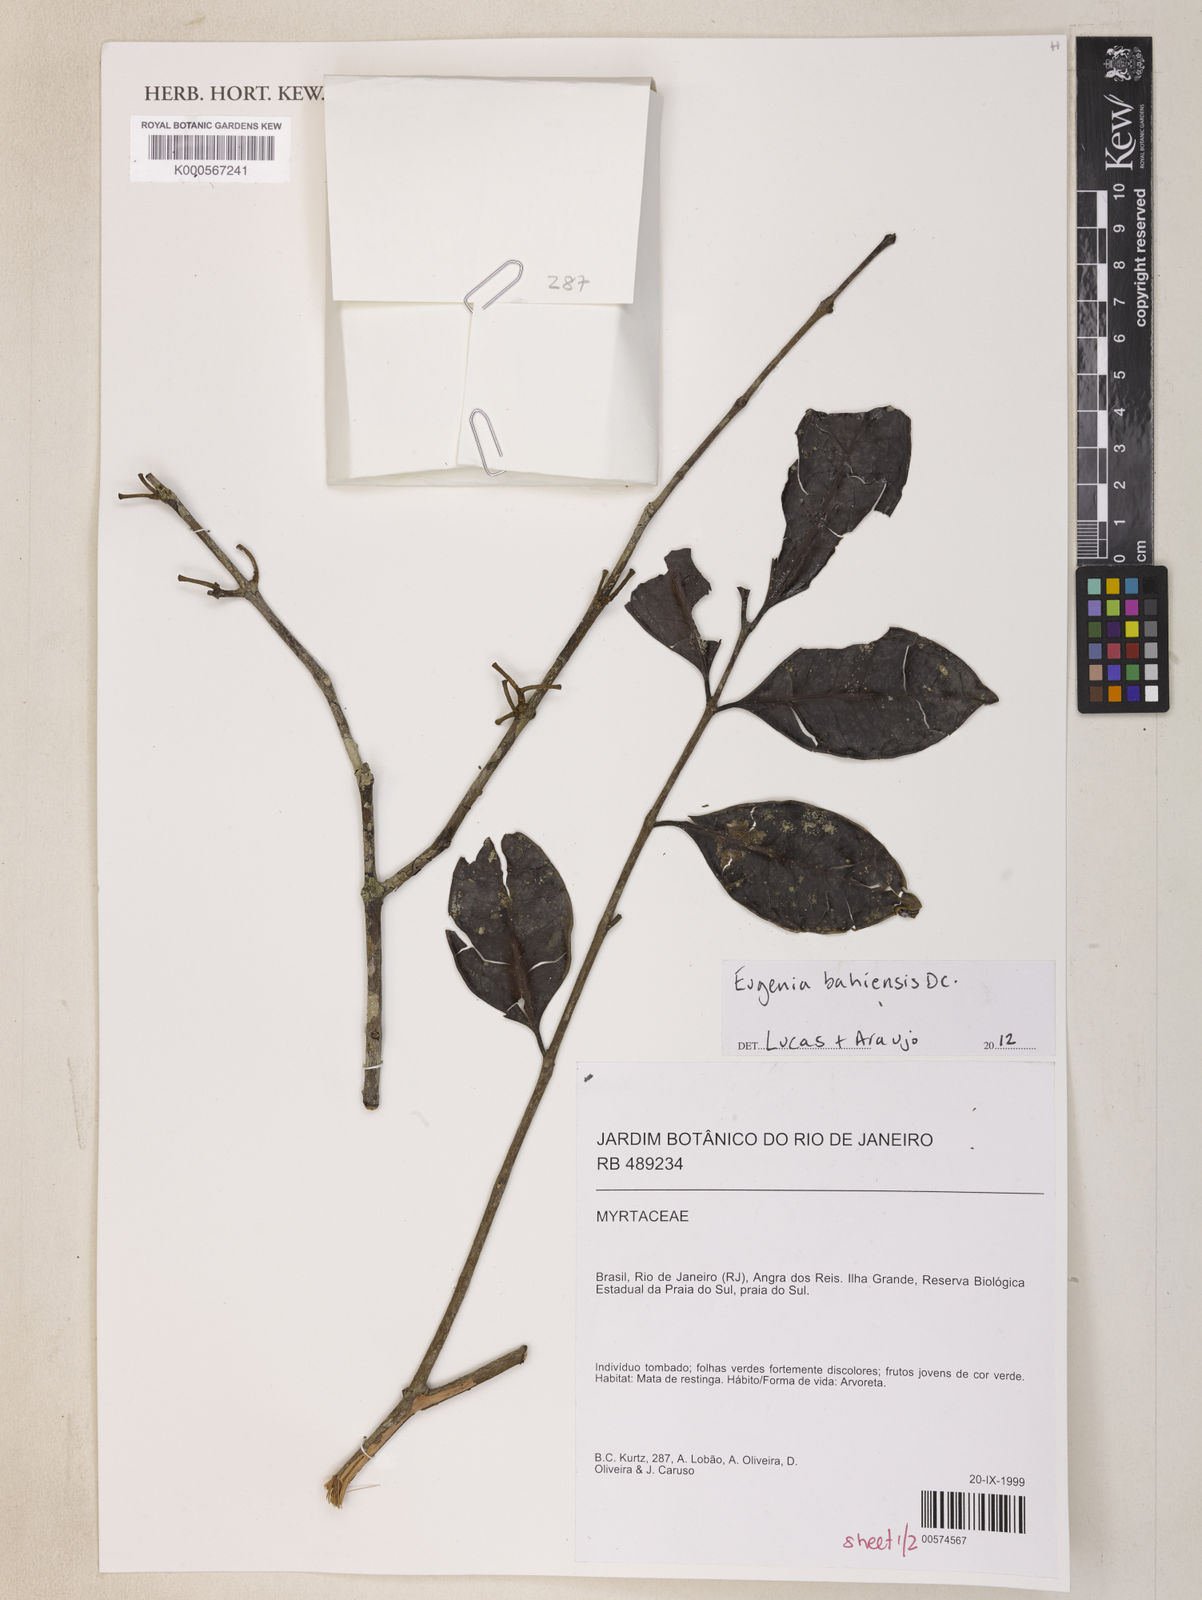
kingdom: Plantae
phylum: Tracheophyta
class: Magnoliopsida
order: Myrtales
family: Myrtaceae
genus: Eugenia
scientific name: Eugenia bahiensis
